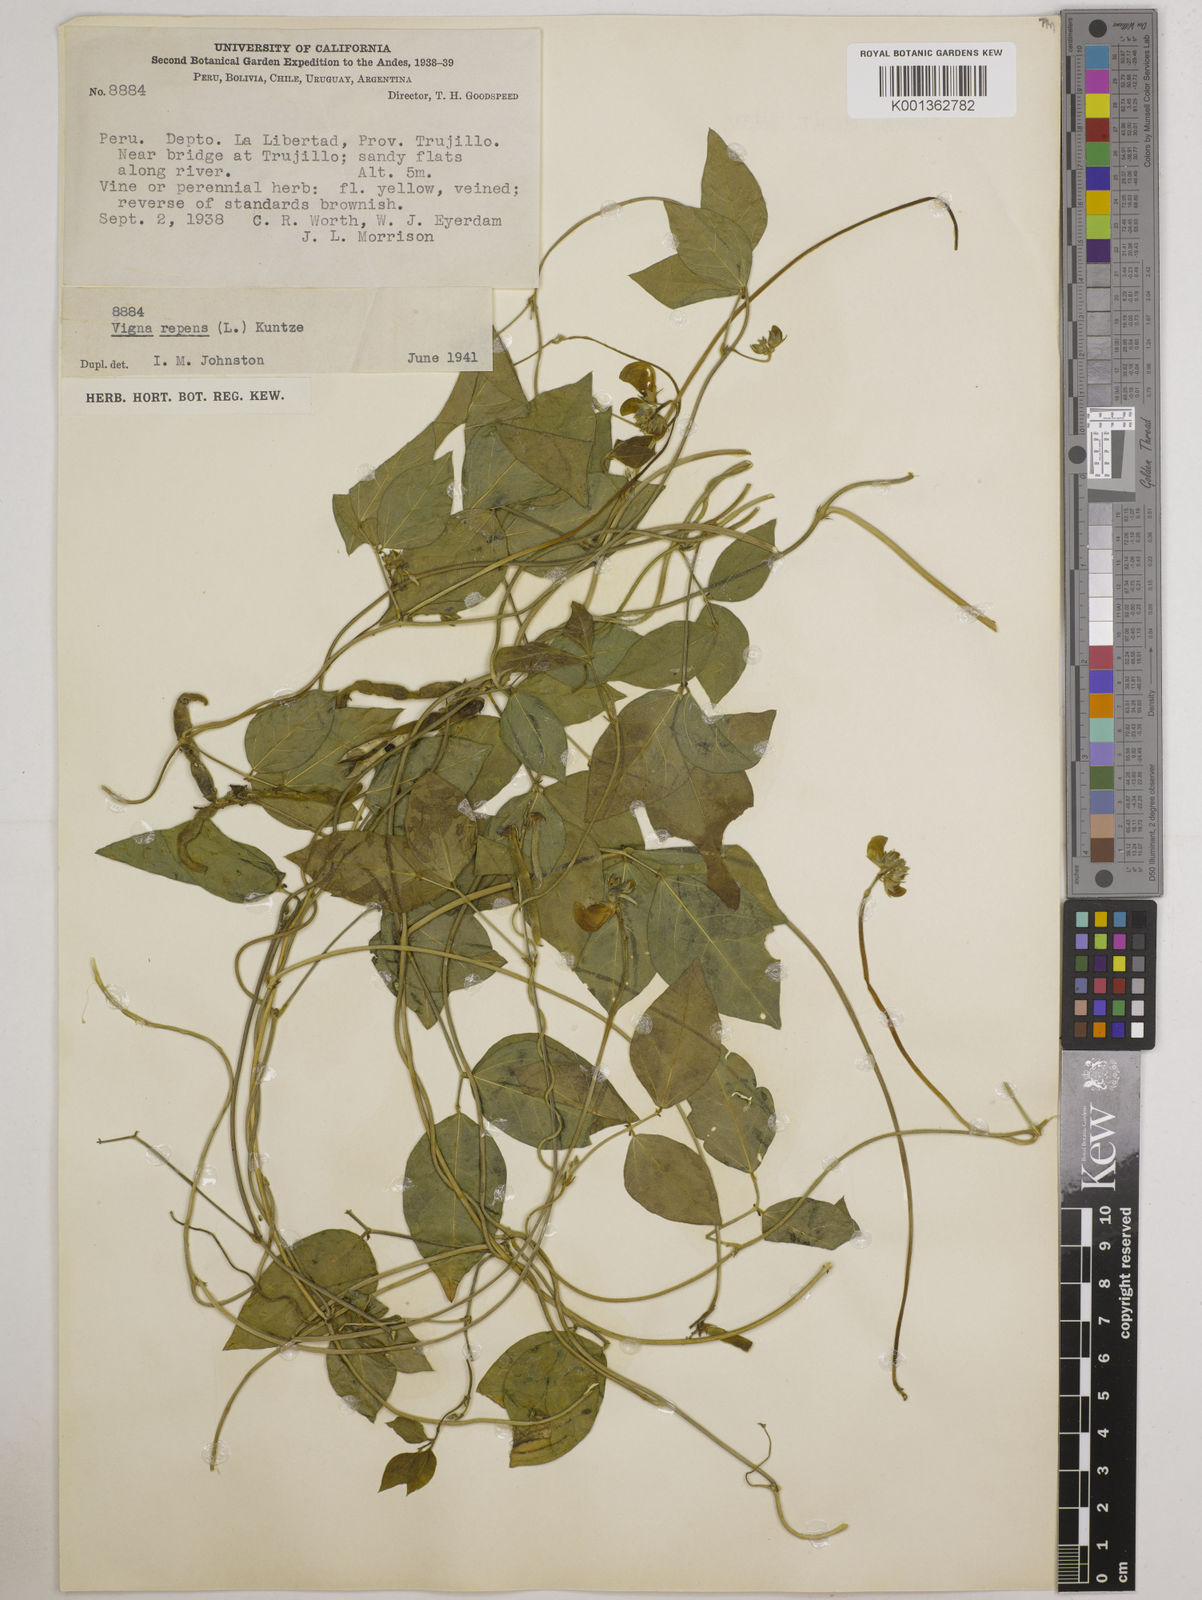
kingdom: Plantae
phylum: Tracheophyta
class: Magnoliopsida
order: Fabales
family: Fabaceae
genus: Vigna
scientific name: Vigna luteola
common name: Hairypod cowpea
